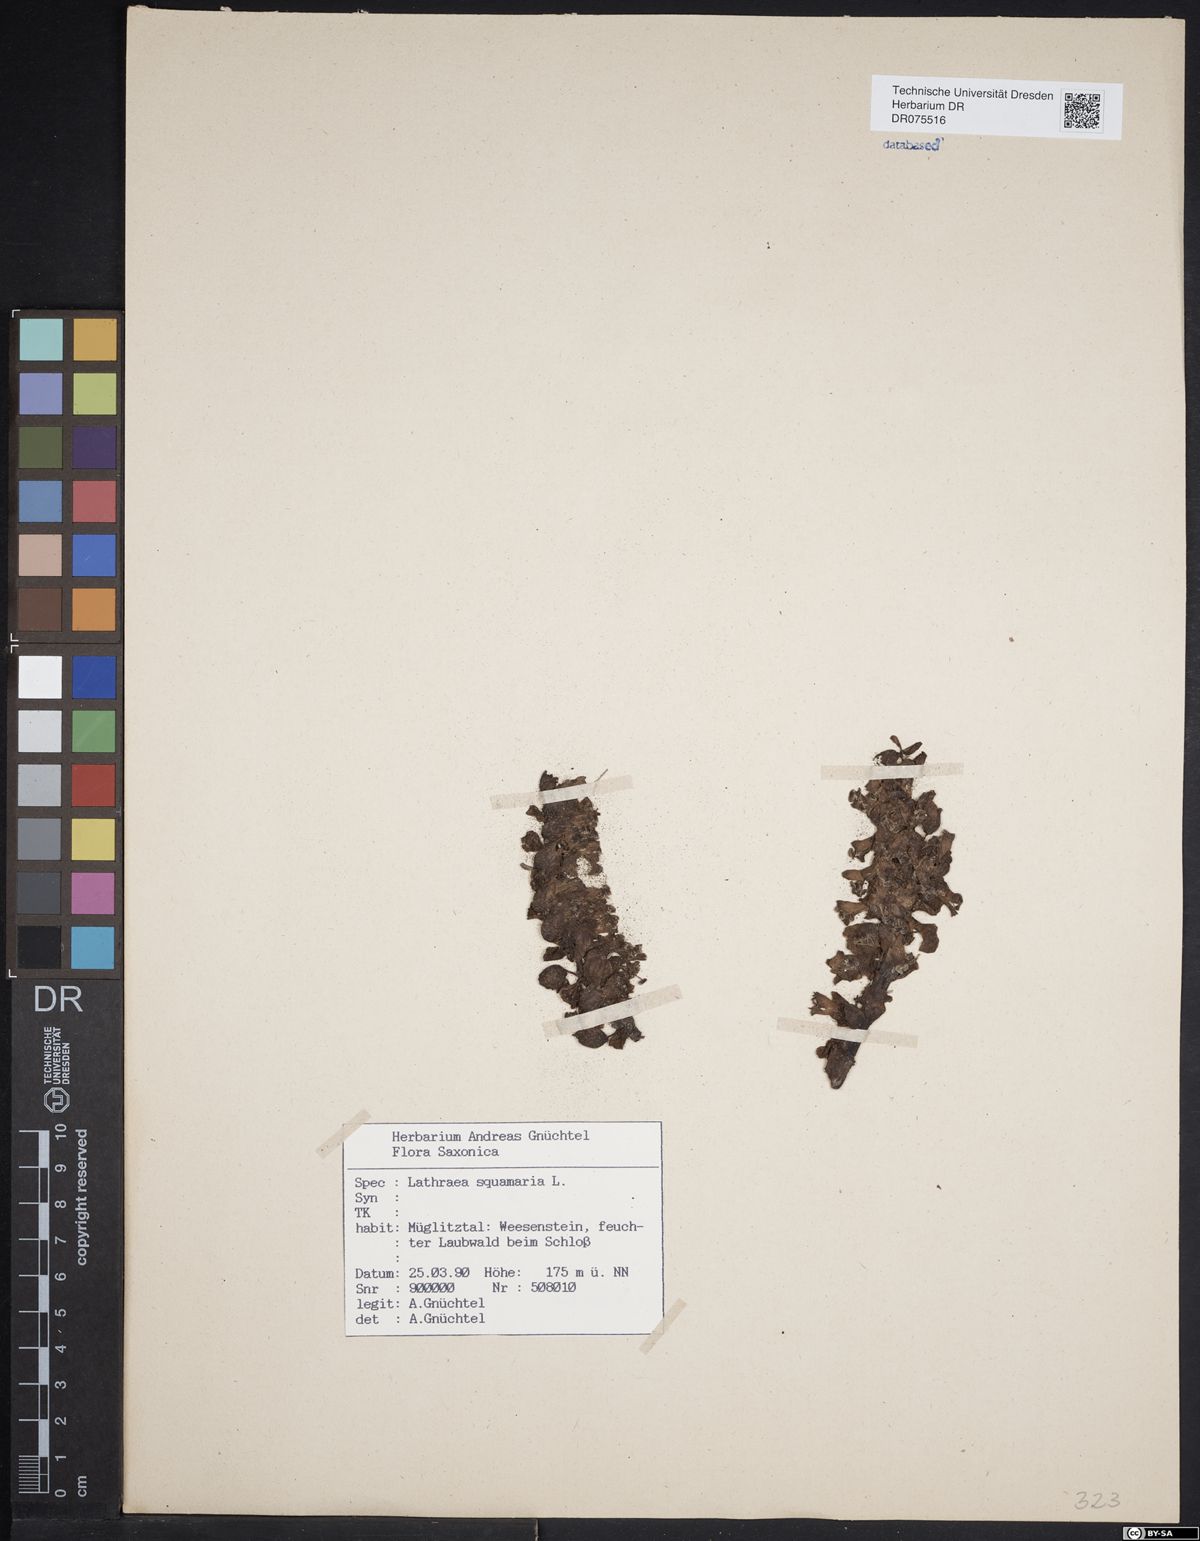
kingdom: Plantae
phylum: Tracheophyta
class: Magnoliopsida
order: Lamiales
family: Orobanchaceae
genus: Lathraea
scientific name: Lathraea squamaria
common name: Toothwort
